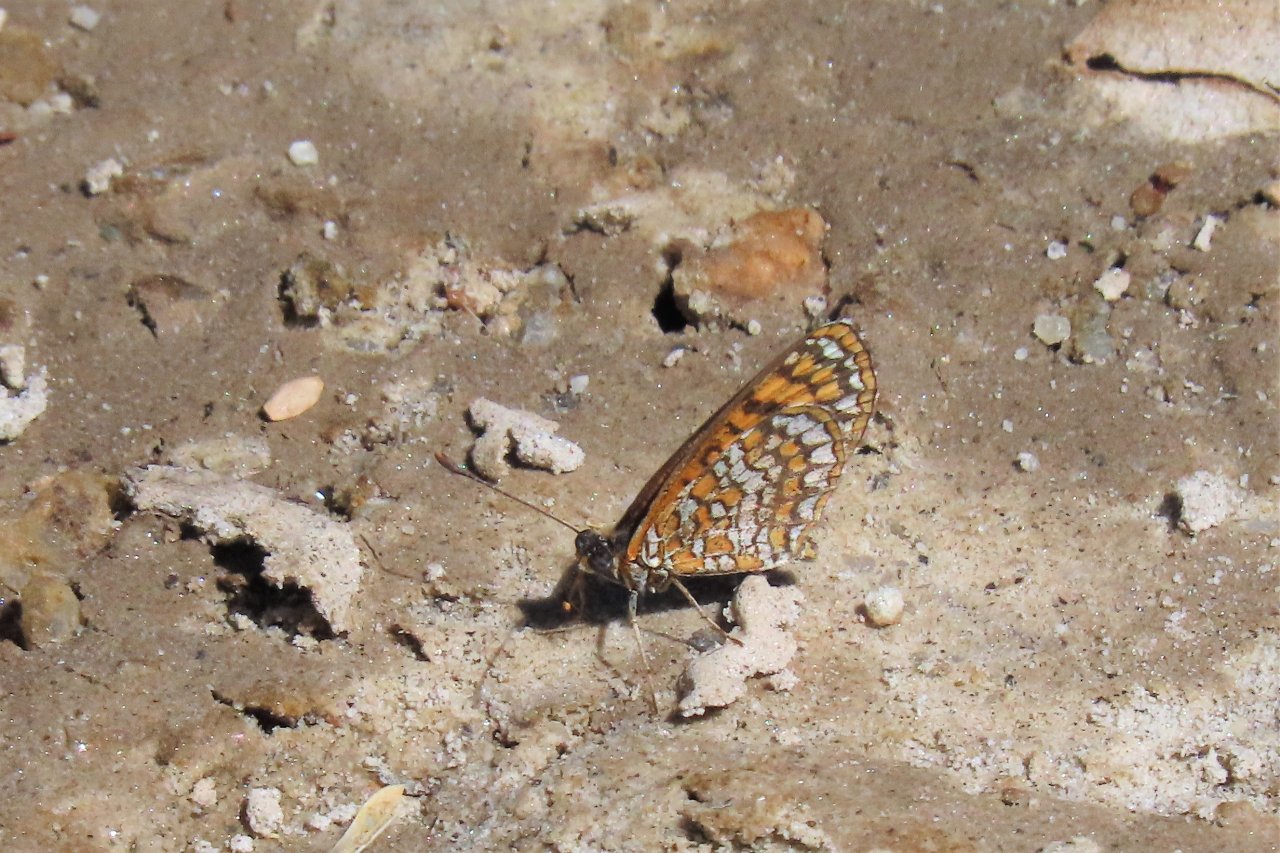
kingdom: Animalia
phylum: Arthropoda
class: Insecta
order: Lepidoptera
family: Nymphalidae
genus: Texola
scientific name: Texola
